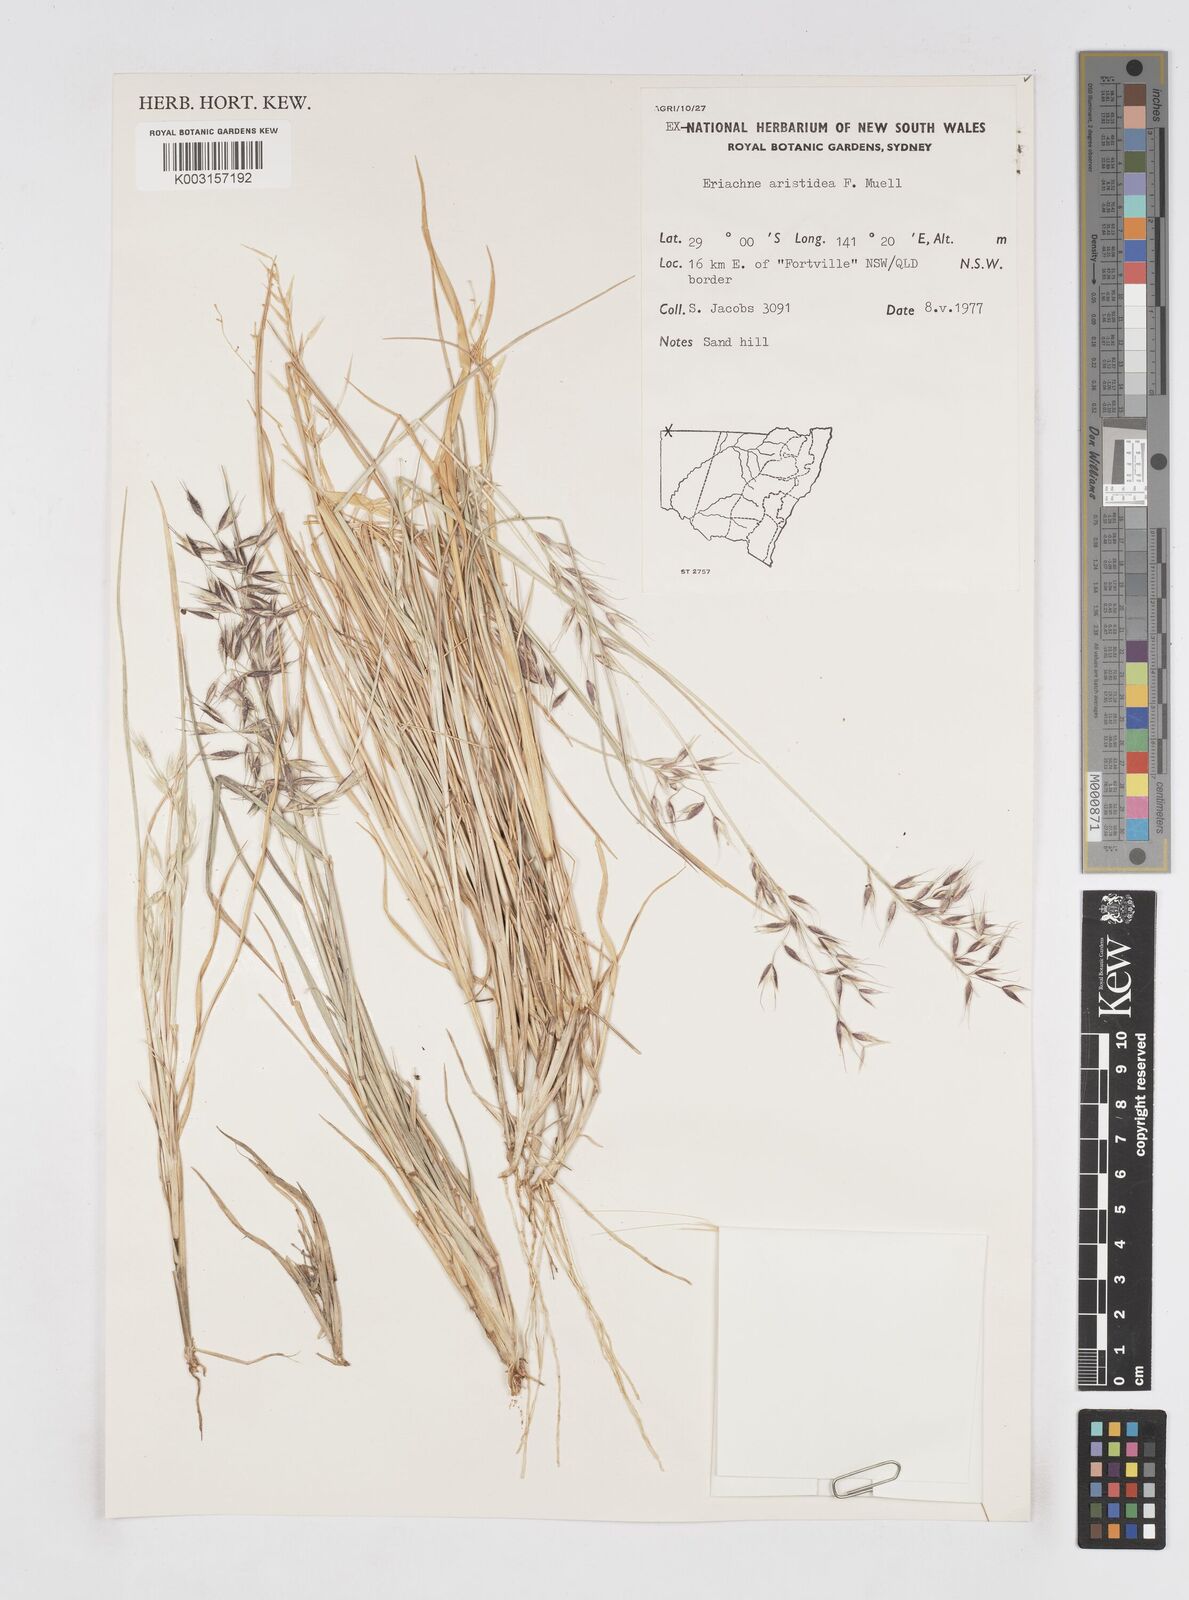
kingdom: Plantae
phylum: Tracheophyta
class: Liliopsida
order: Poales
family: Poaceae
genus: Eriachne
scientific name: Eriachne aristidea
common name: Three-awn wanderrie grass
